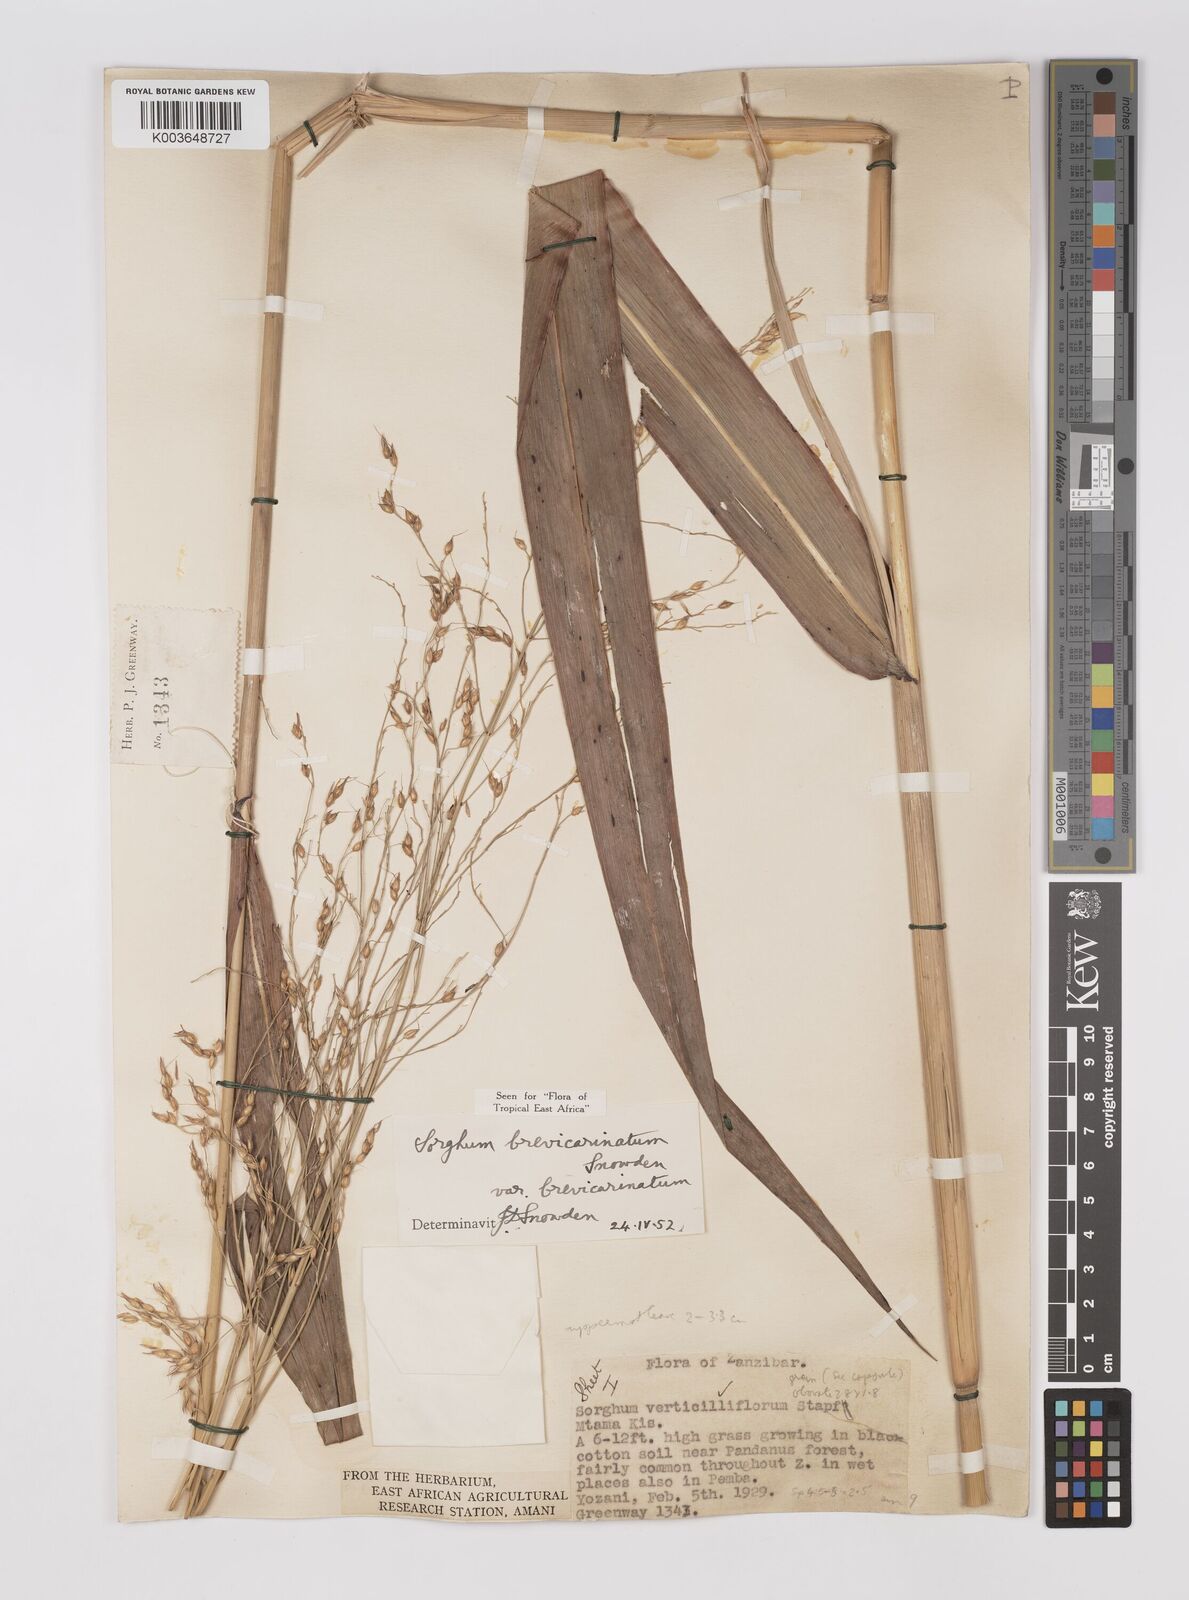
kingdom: Plantae
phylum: Tracheophyta
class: Liliopsida
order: Poales
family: Poaceae
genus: Sorghum
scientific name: Sorghum arundinaceum
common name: Sorghum
